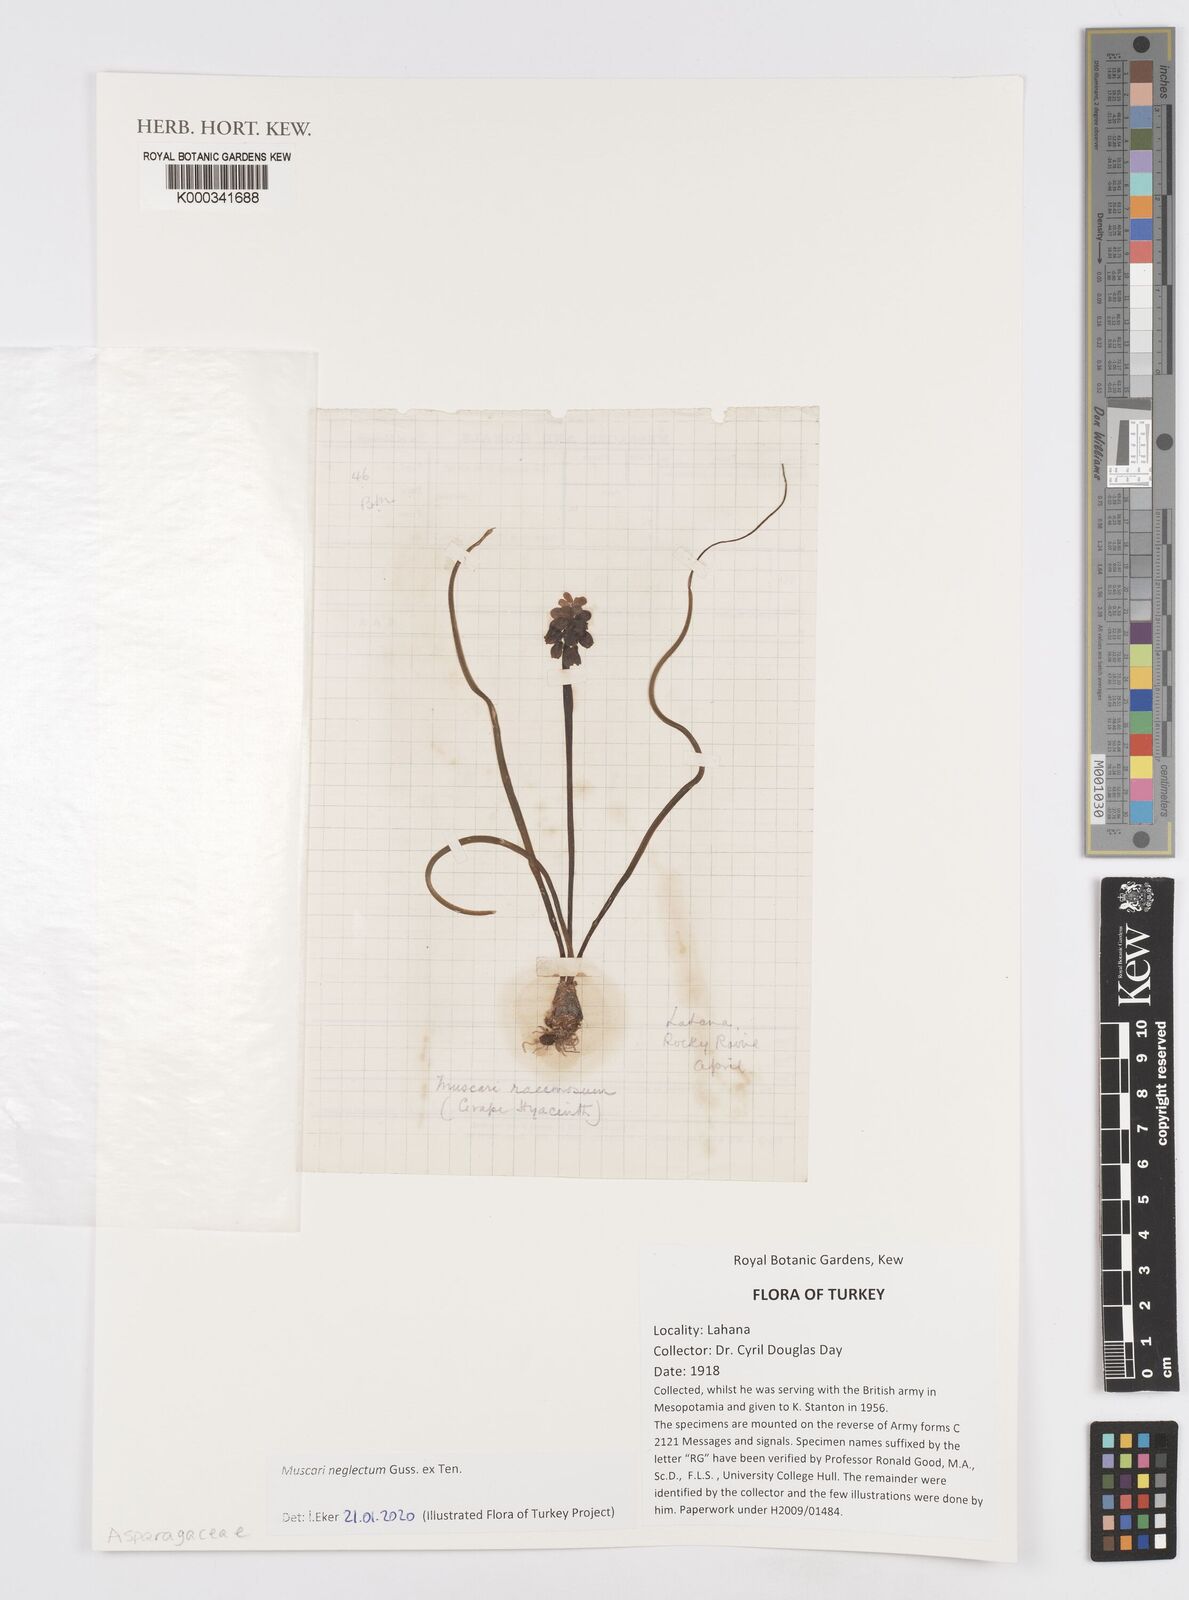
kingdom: Plantae
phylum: Tracheophyta
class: Liliopsida
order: Asparagales
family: Asparagaceae
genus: Muscarimia
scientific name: Muscarimia muscari
